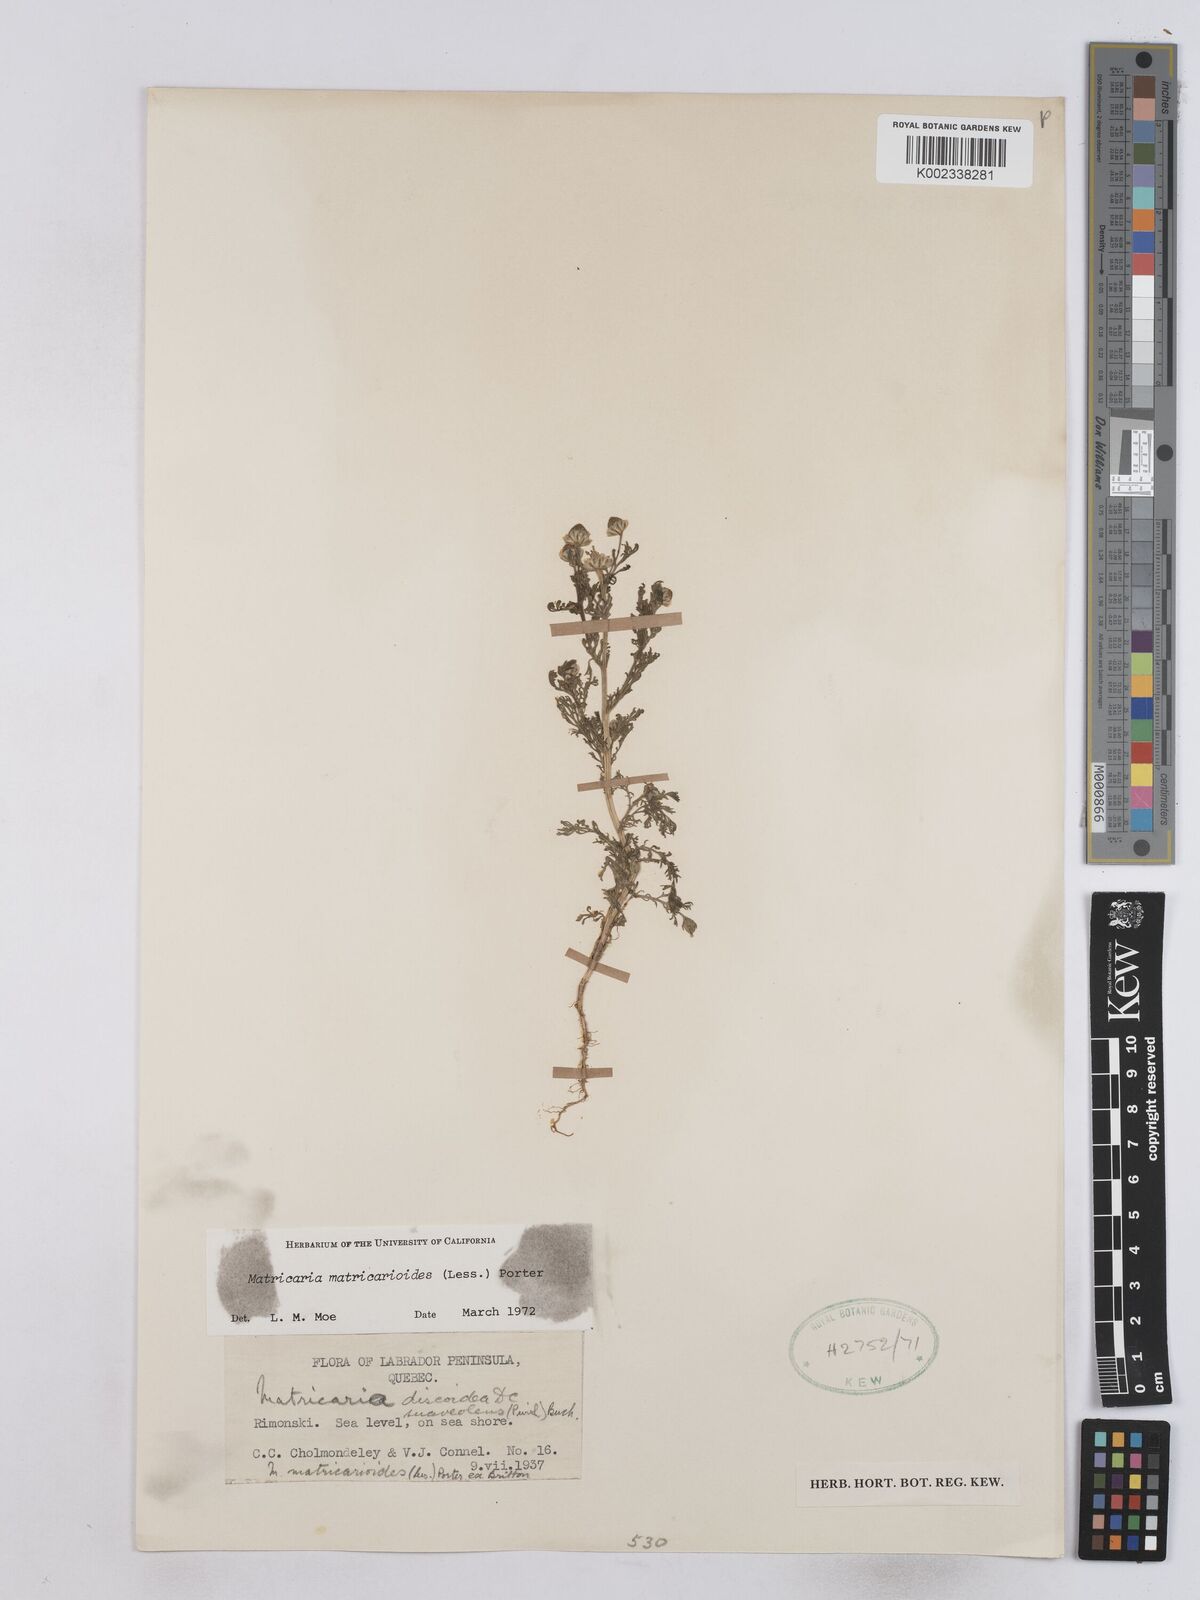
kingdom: Plantae
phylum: Tracheophyta
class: Magnoliopsida
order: Asterales
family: Asteraceae
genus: Matricaria
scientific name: Matricaria discoidea
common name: Disc mayweed
